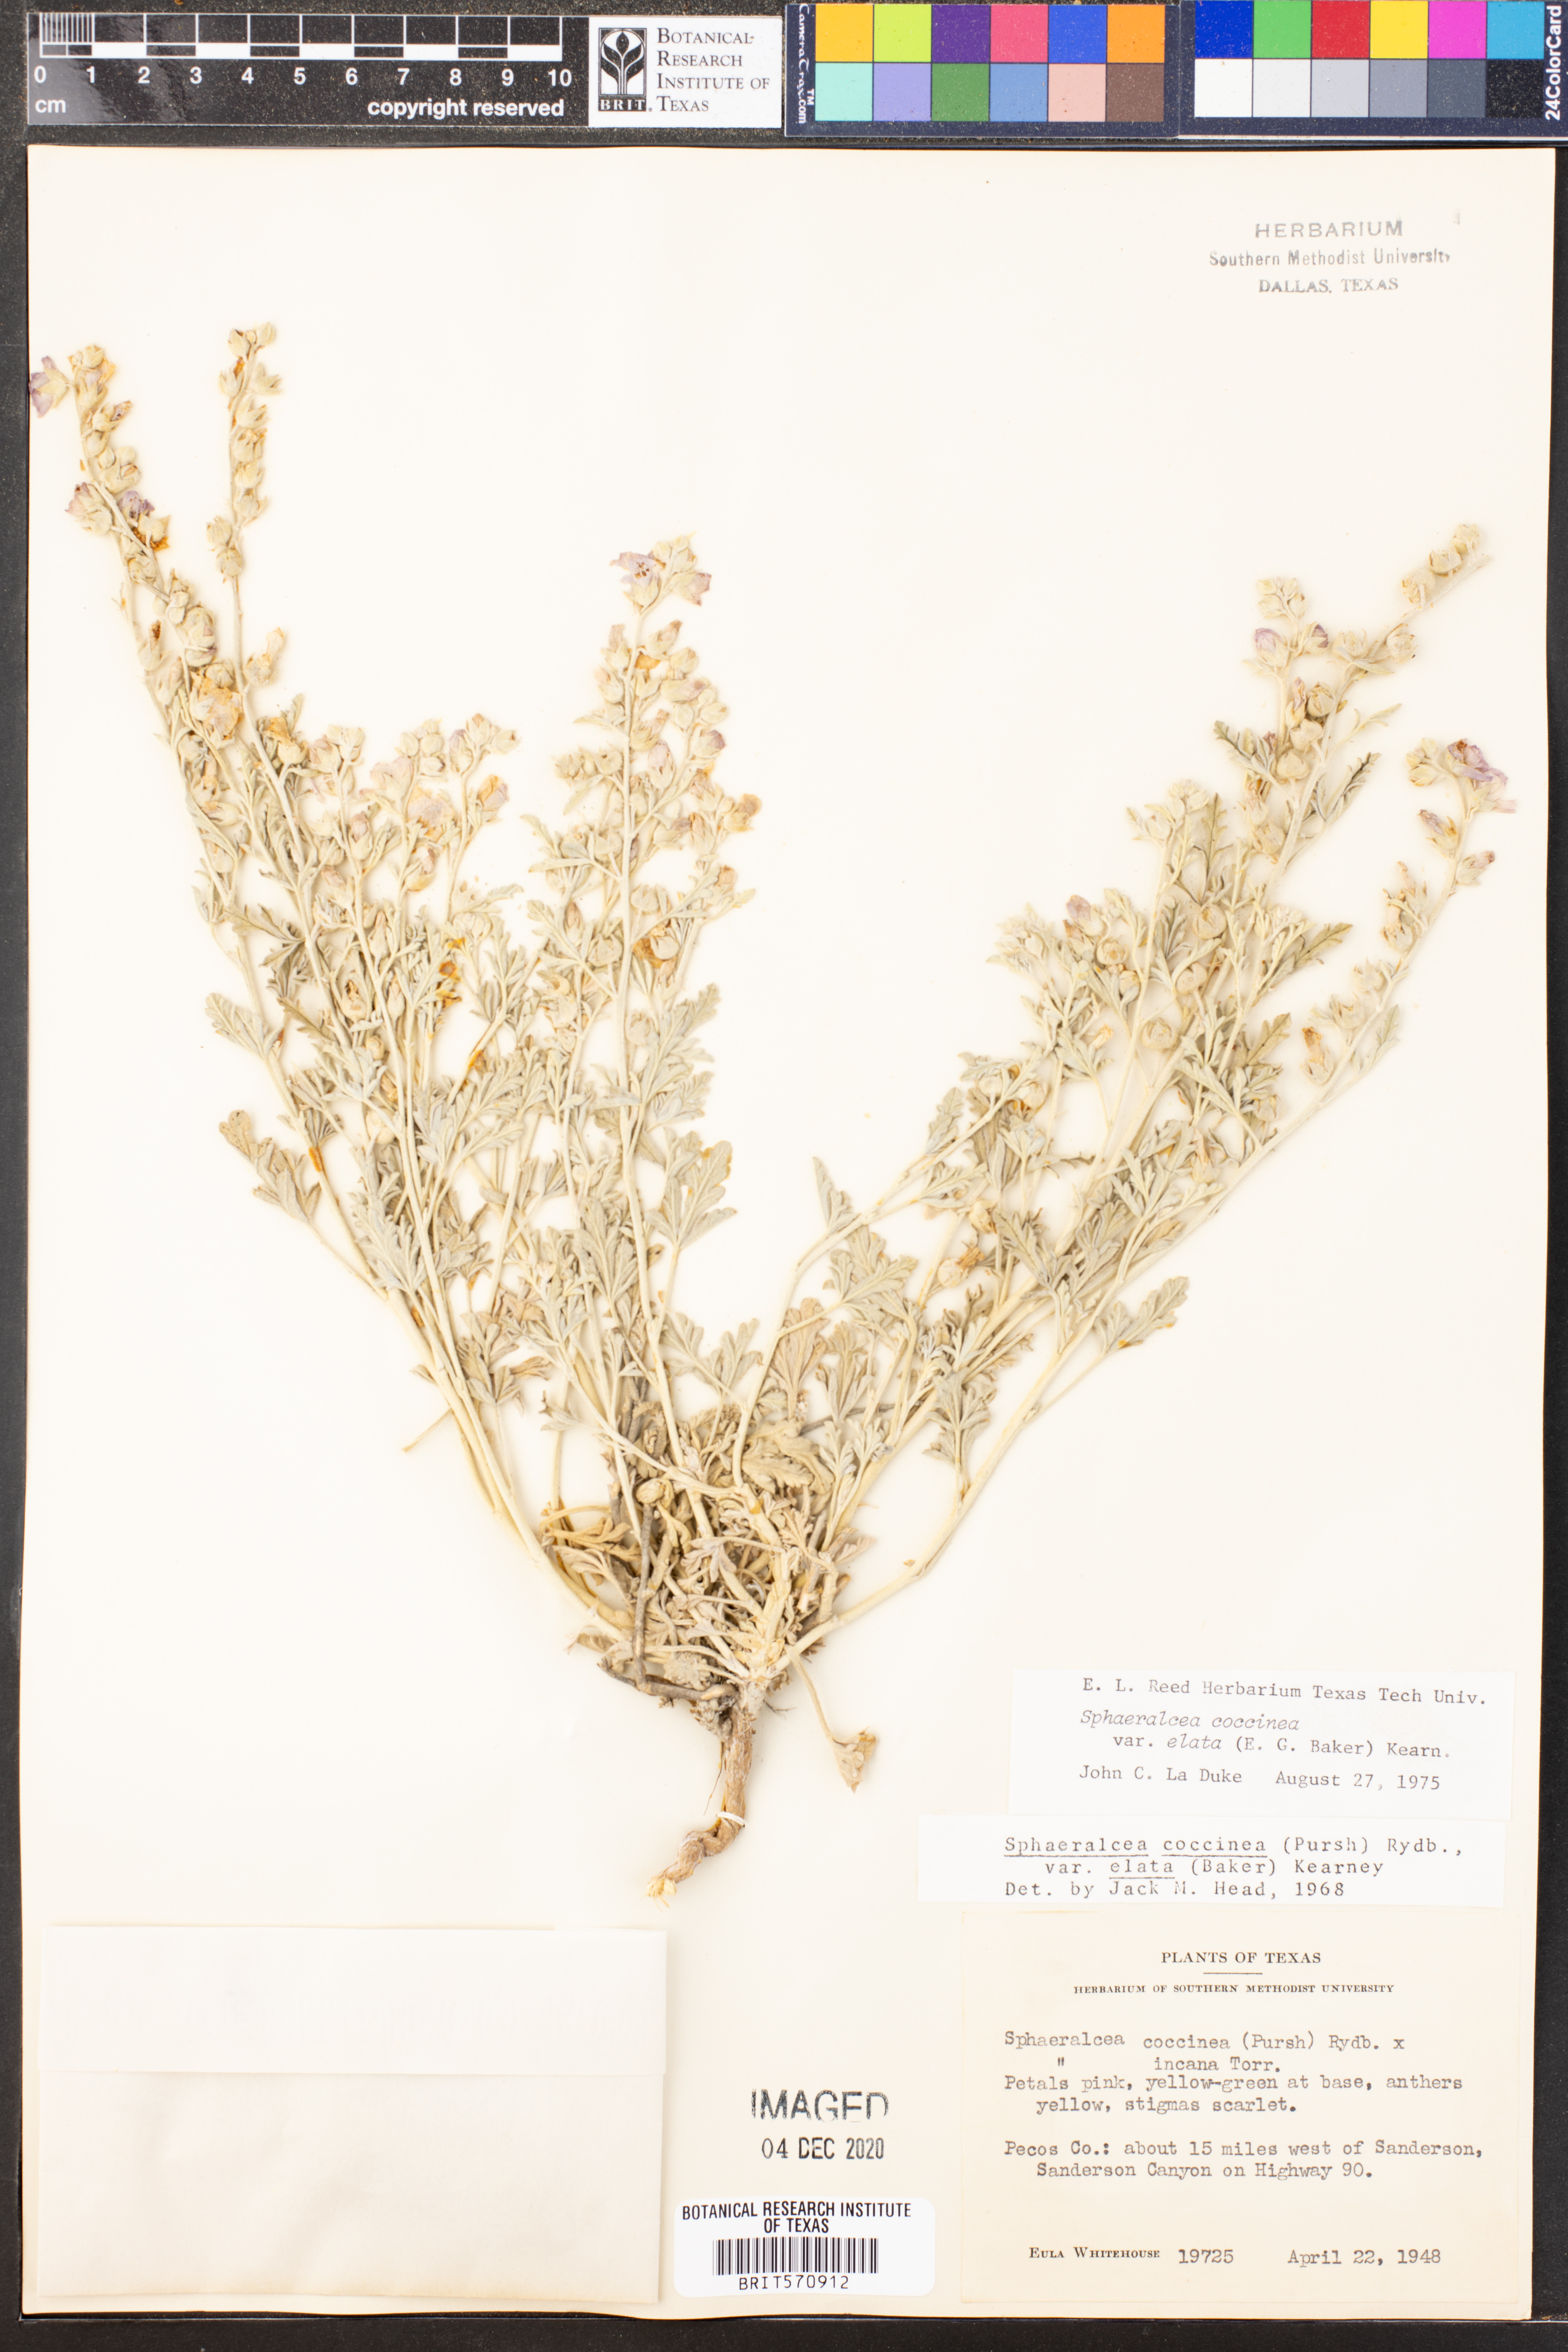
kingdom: Plantae
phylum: Tracheophyta
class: Magnoliopsida
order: Malvales
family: Malvaceae
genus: Sphaeralcea
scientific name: Sphaeralcea coccinea
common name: Moss-rose
